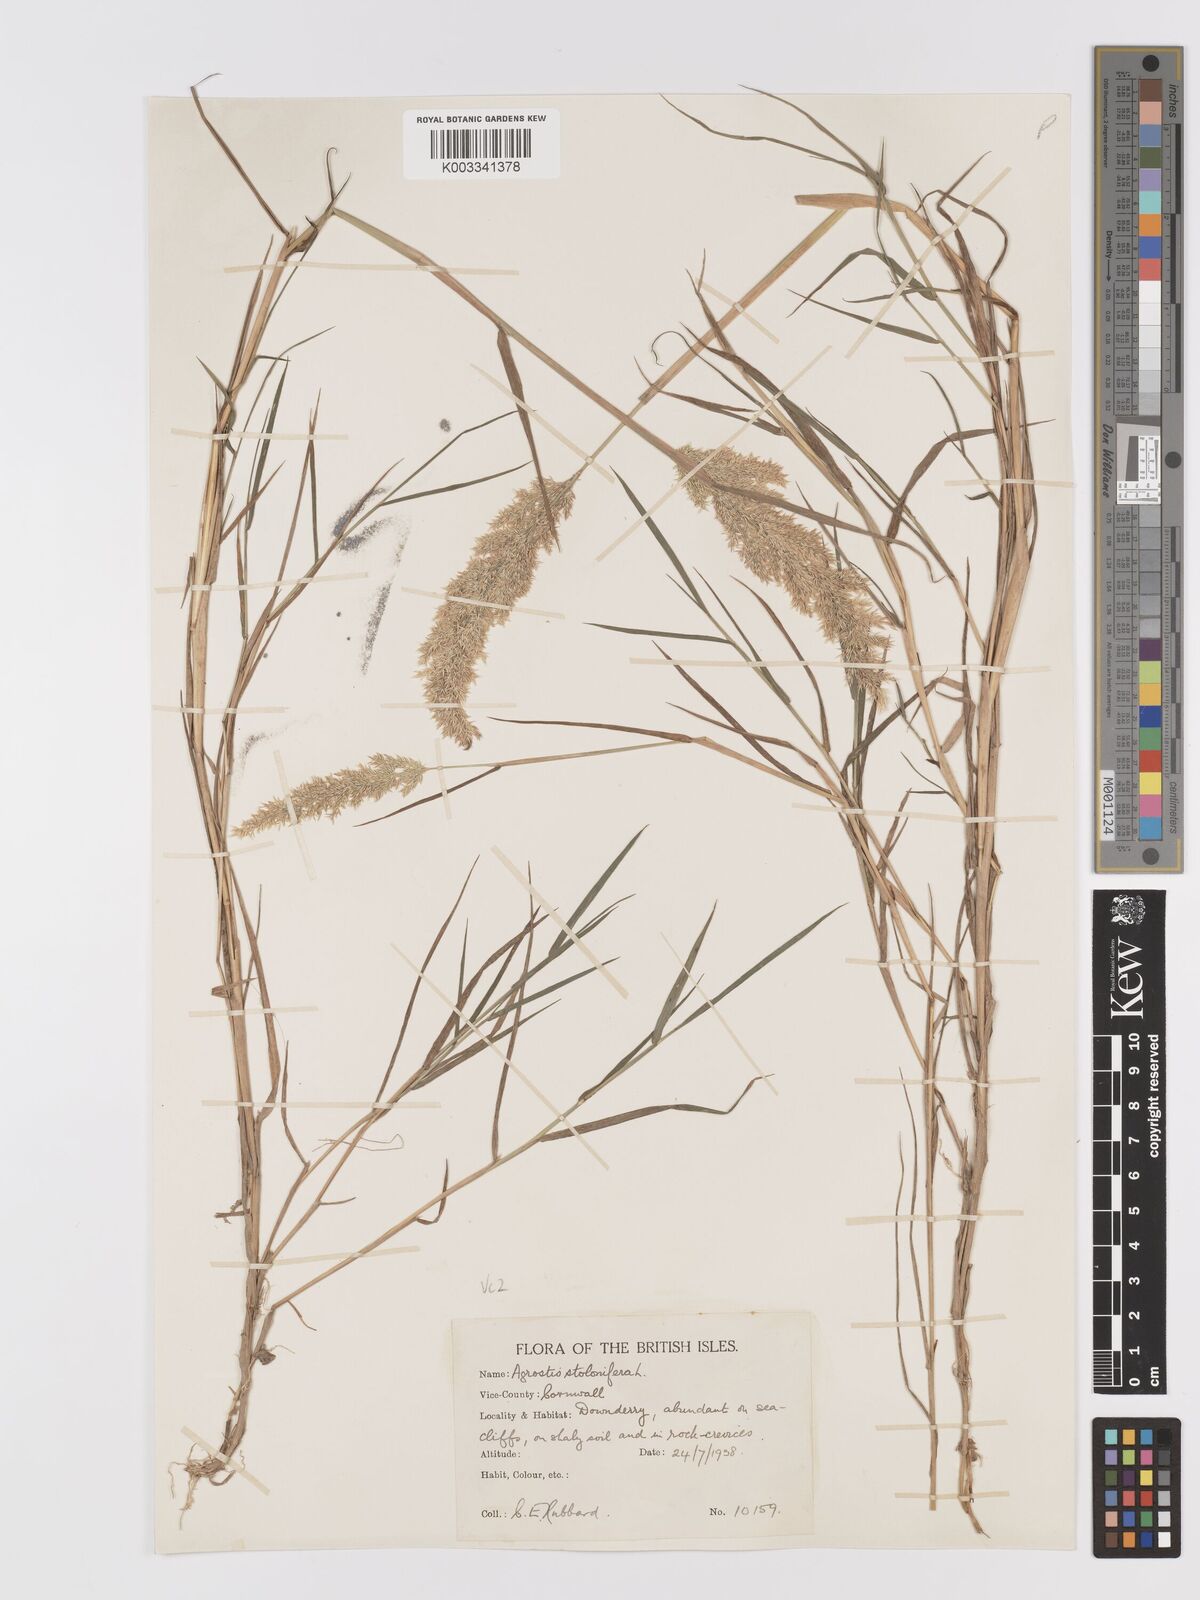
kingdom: Plantae
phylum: Tracheophyta
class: Liliopsida
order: Poales
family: Poaceae
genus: Agrostis
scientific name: Agrostis stolonifera
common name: Creeping bentgrass
